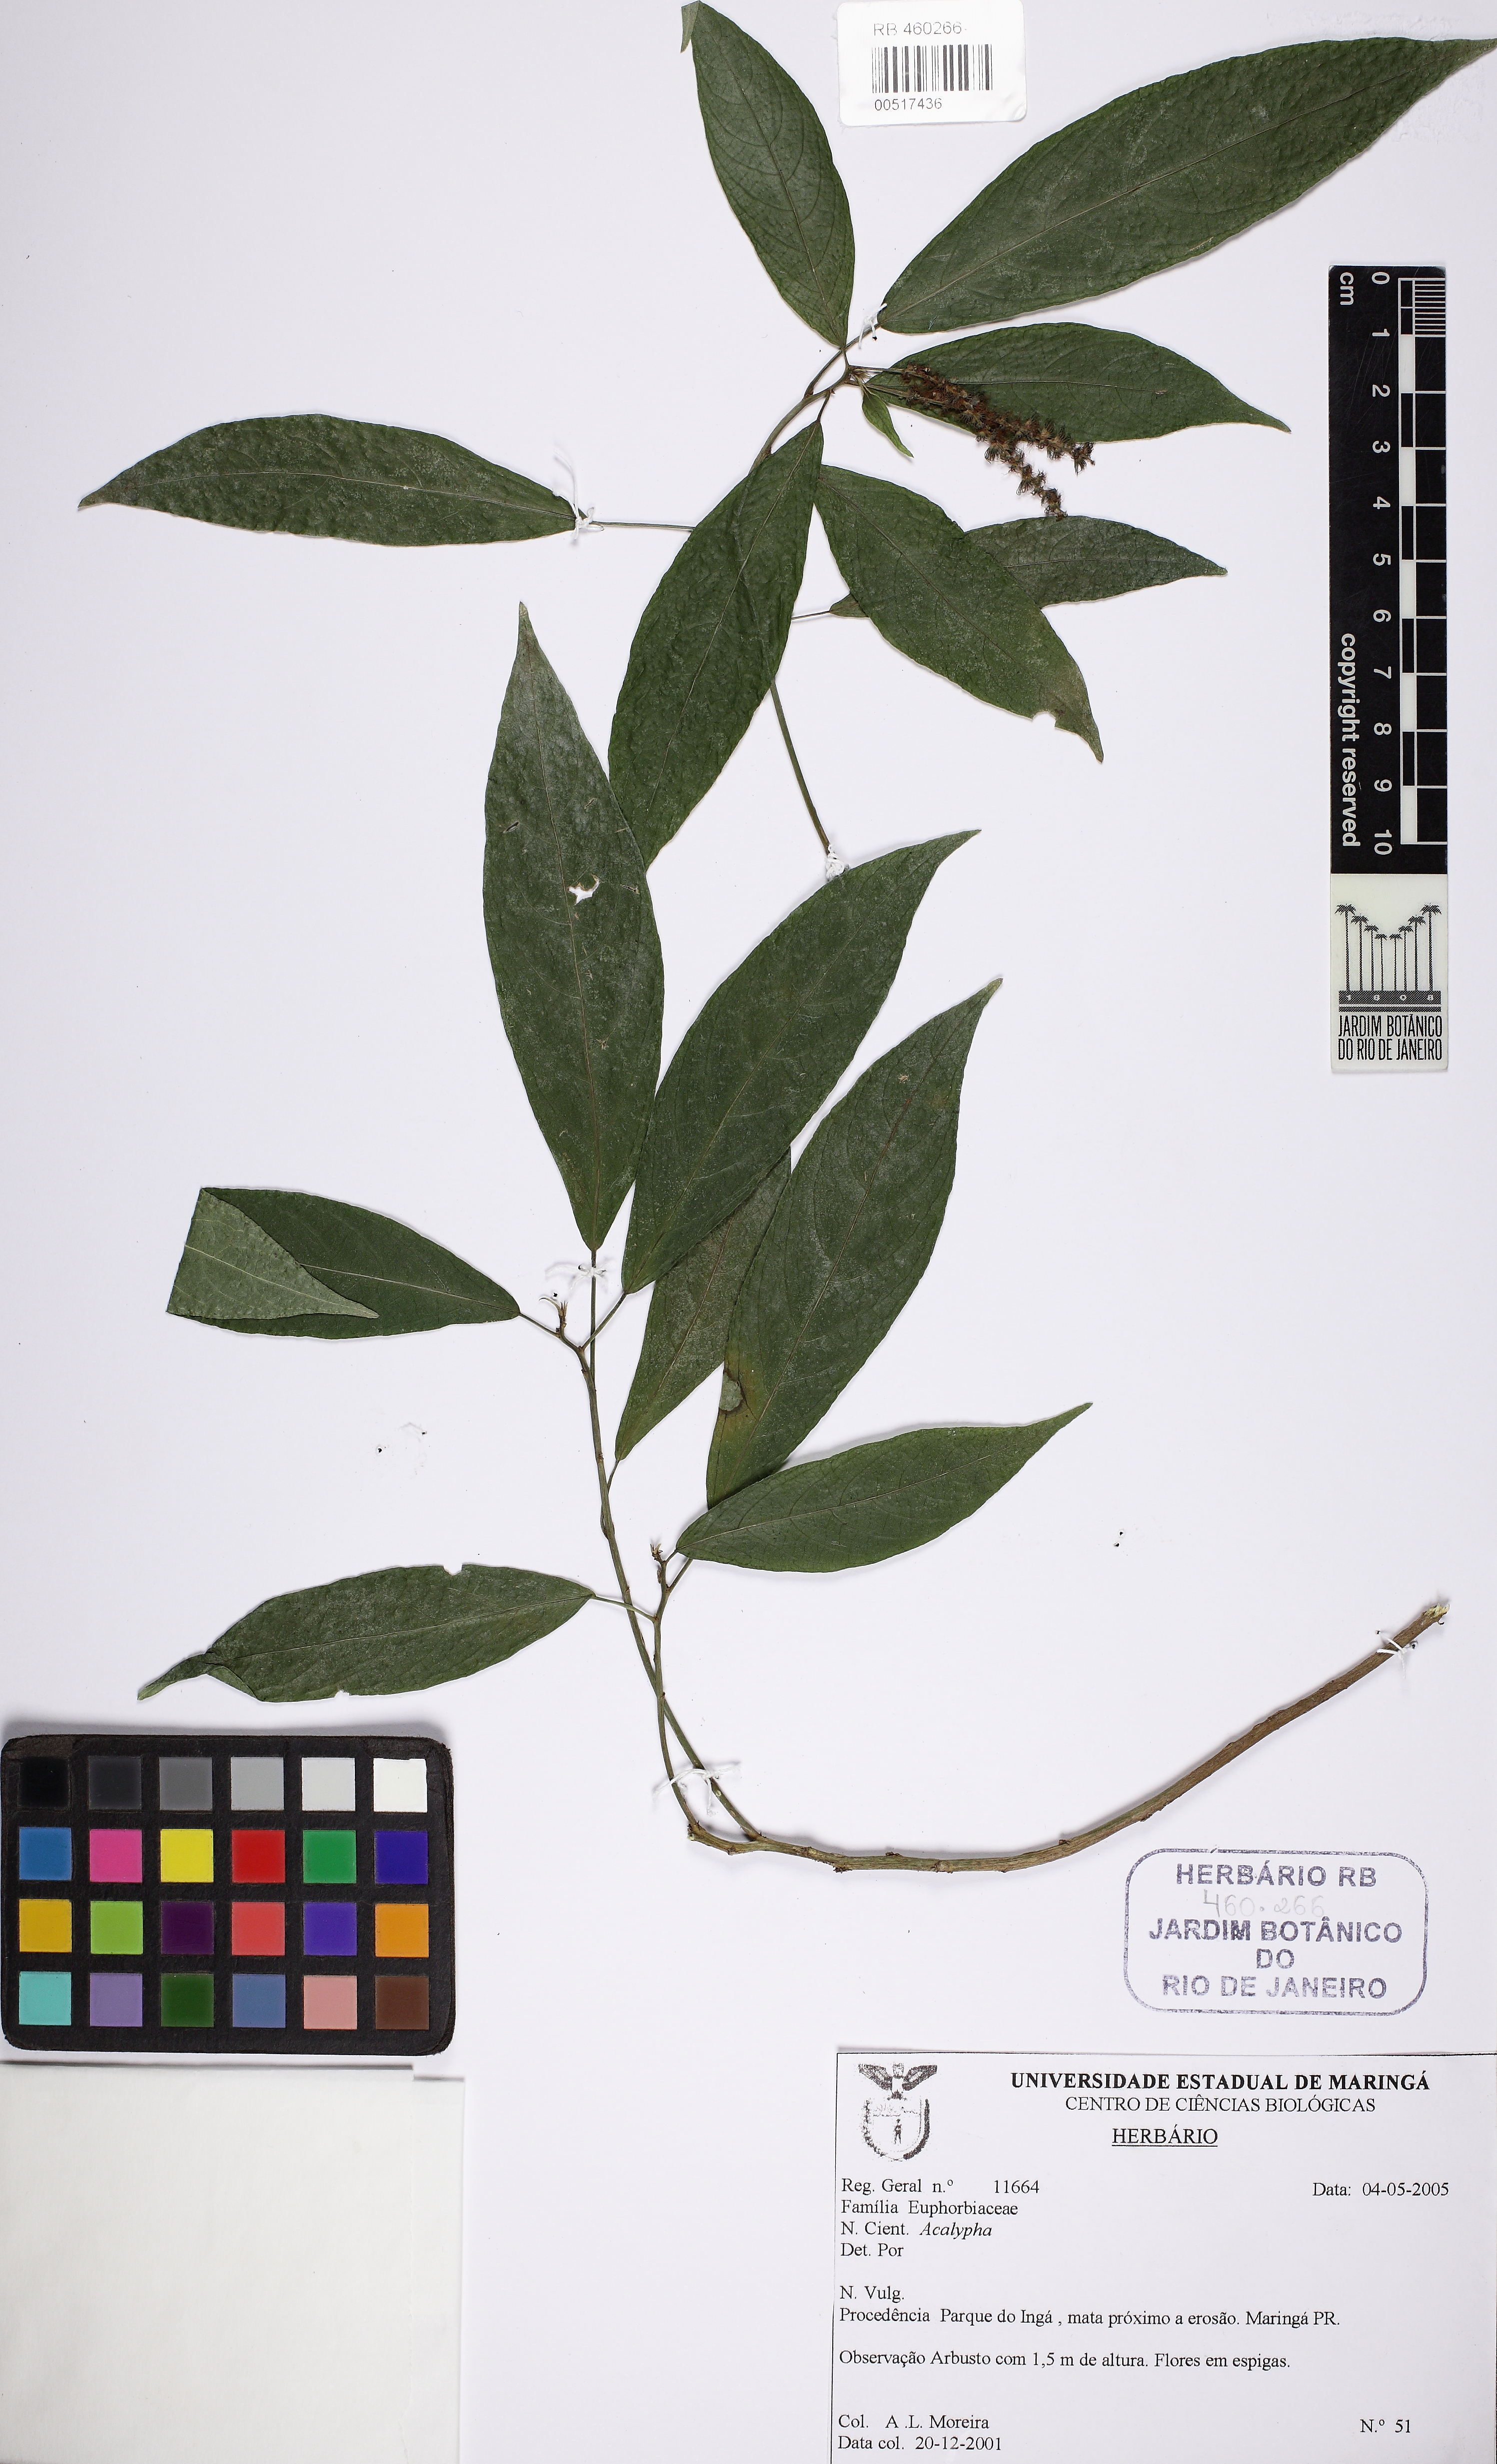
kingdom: Plantae
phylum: Tracheophyta
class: Magnoliopsida
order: Malpighiales
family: Euphorbiaceae
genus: Acalypha
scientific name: Acalypha digynostachya
